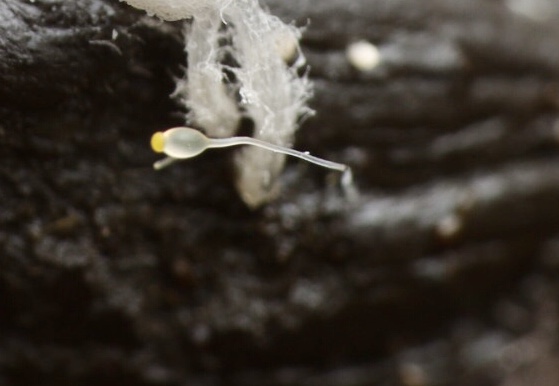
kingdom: Fungi
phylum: Mucoromycota
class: Mucoromycetes
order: Mucorales
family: Pilobolaceae
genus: Pilobolus
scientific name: Pilobolus
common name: boldkaster
